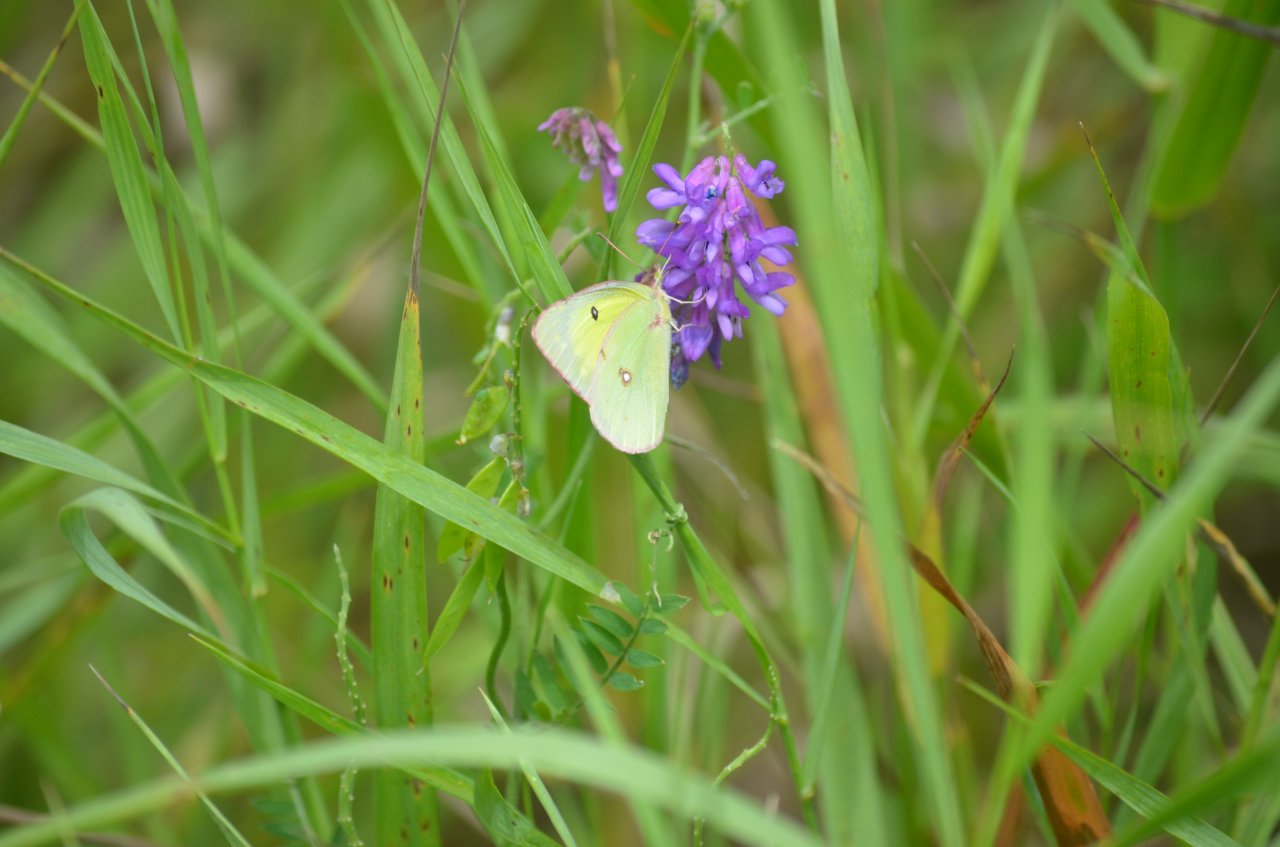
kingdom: Animalia
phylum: Arthropoda
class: Insecta
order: Lepidoptera
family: Pieridae
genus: Colias
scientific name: Colias philodice
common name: Clouded Sulphur
